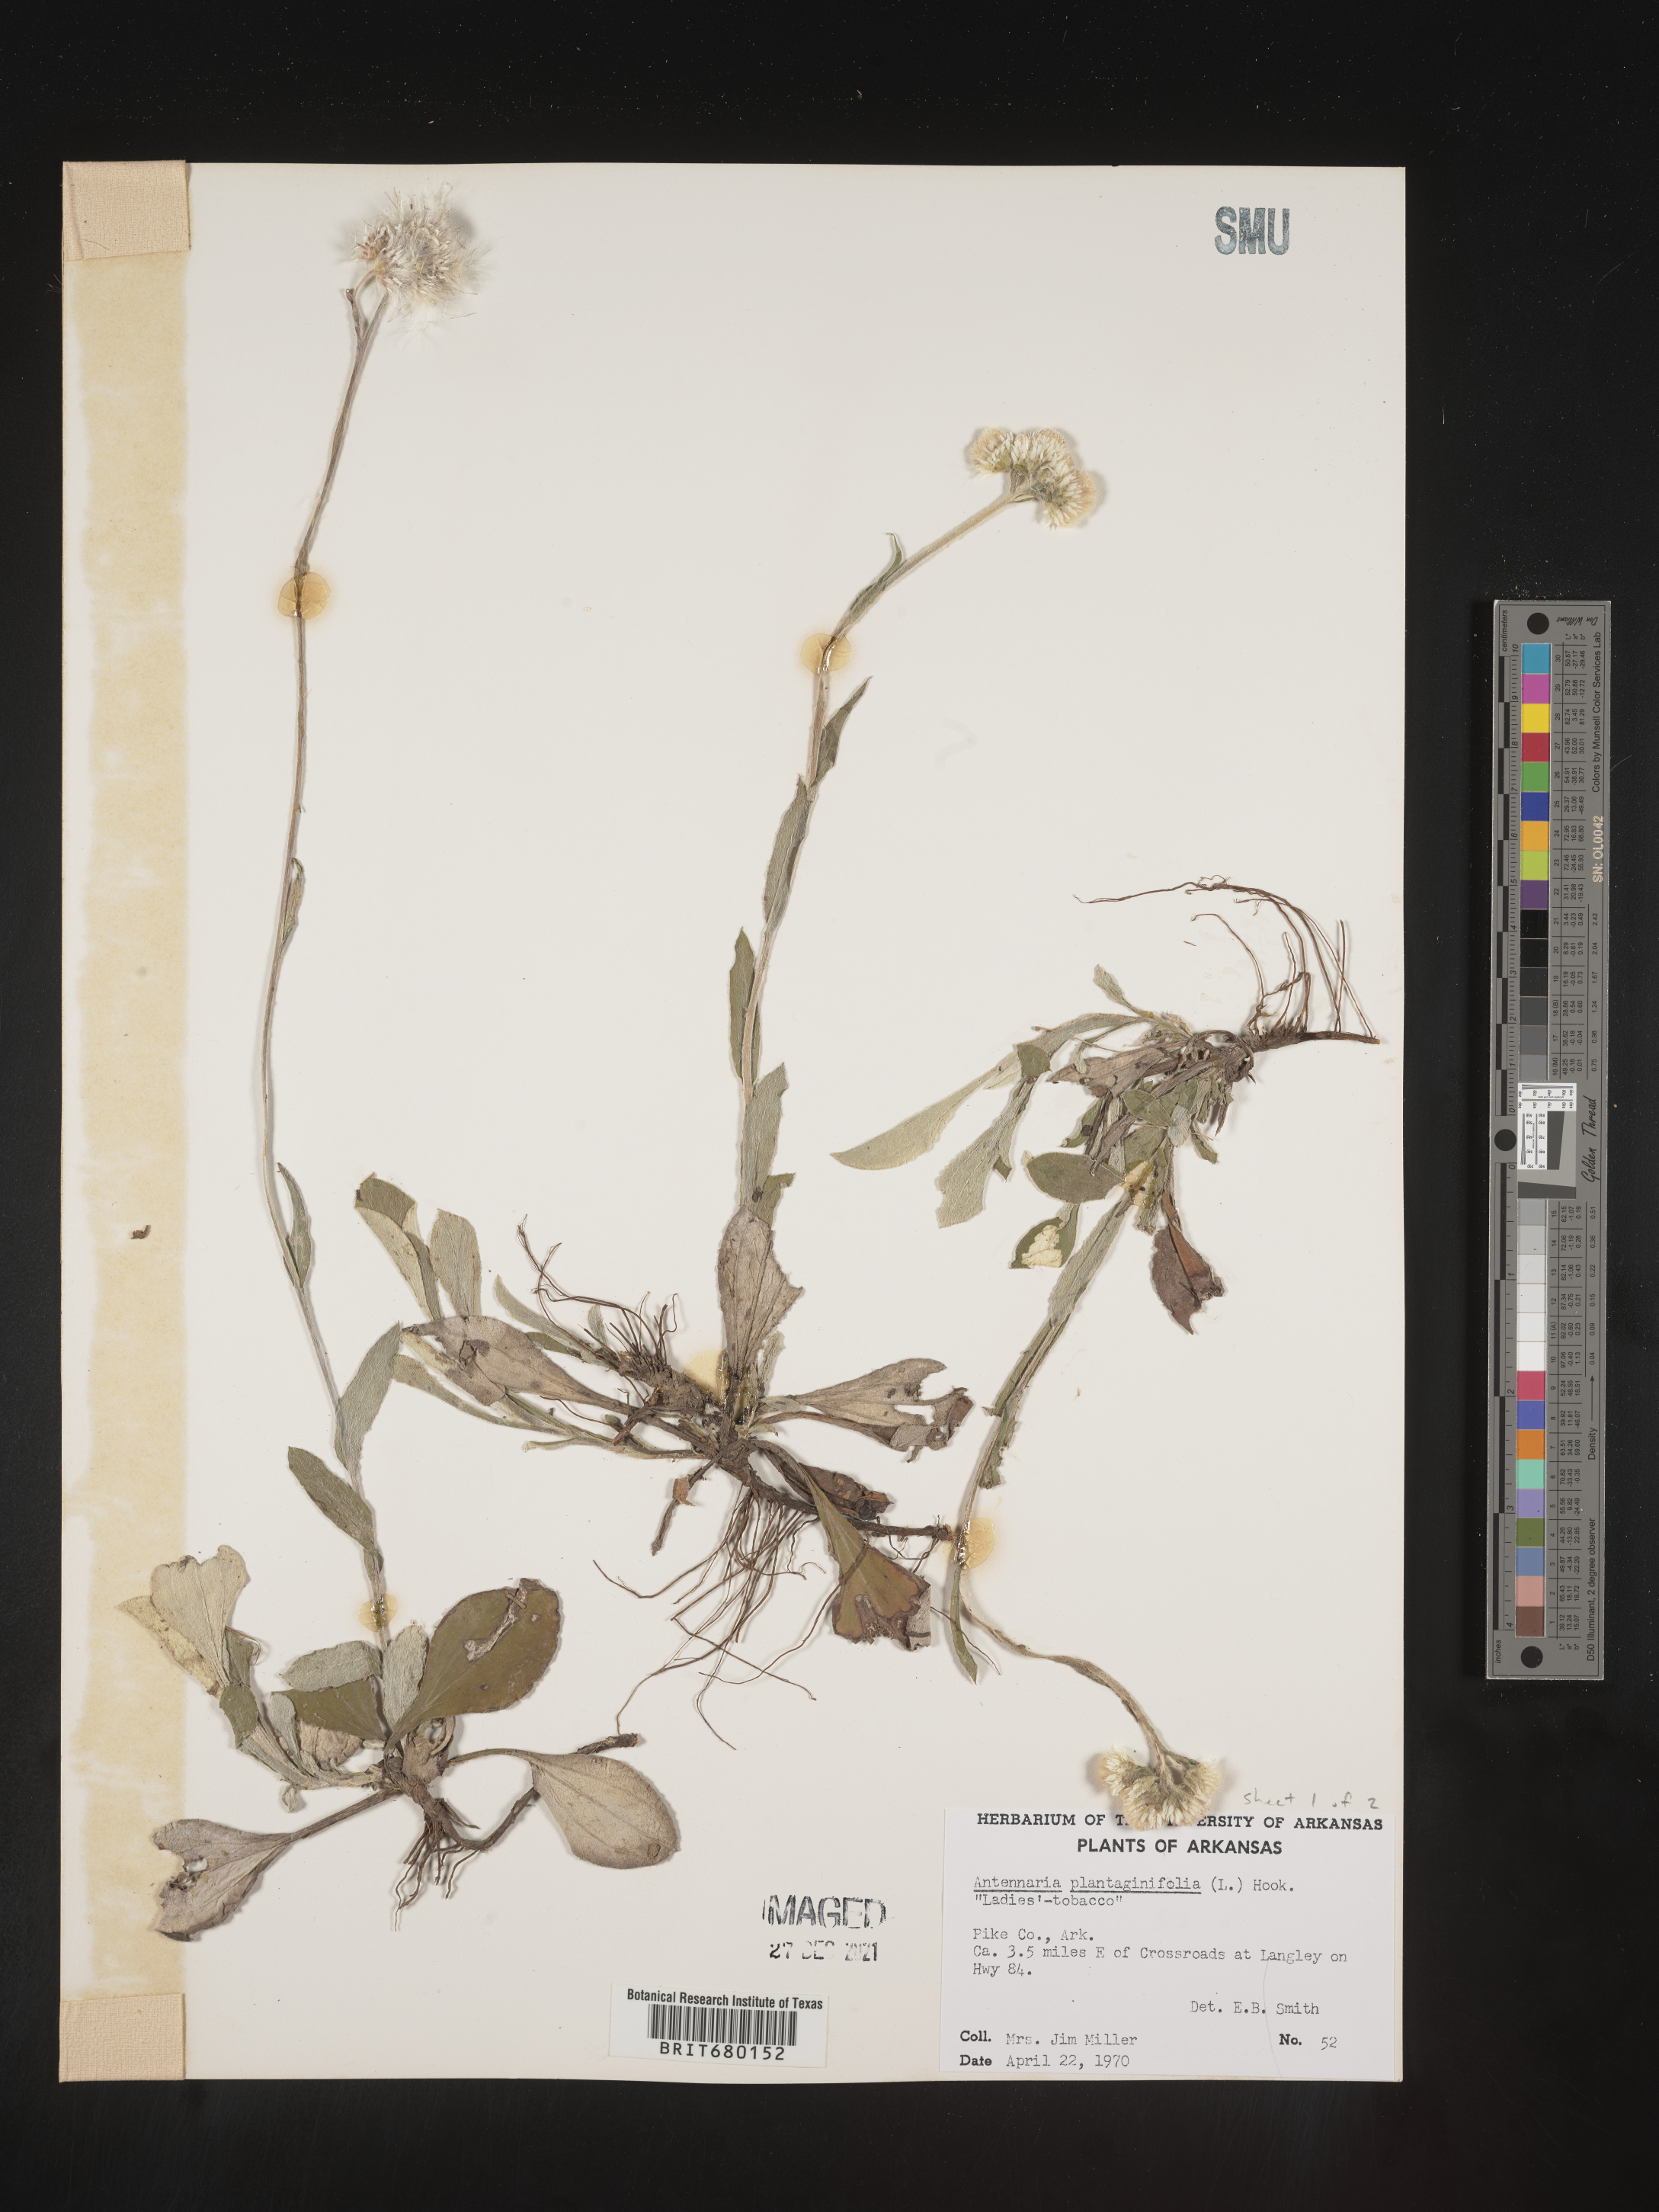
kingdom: Plantae
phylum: Tracheophyta
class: Magnoliopsida
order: Asterales
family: Asteraceae
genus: Antennaria
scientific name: Antennaria plantaginifolia
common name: Plantain-leaved pussytoes
